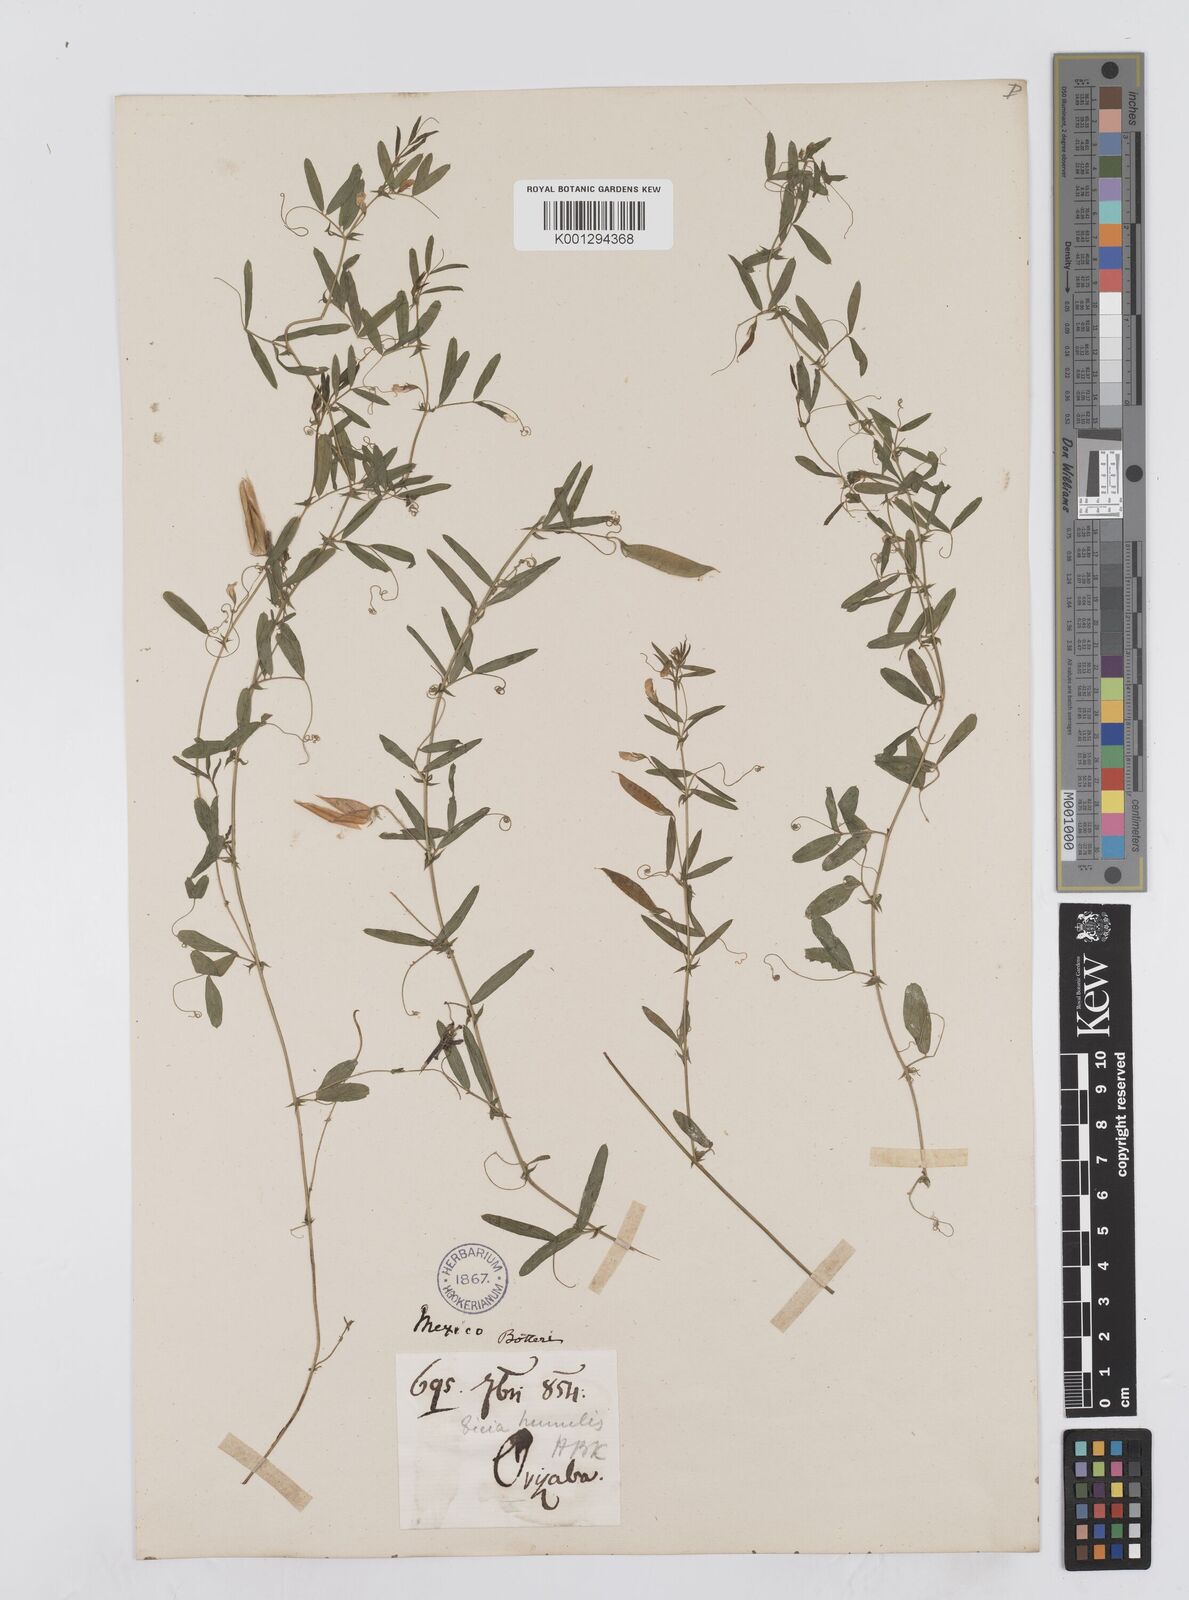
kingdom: Plantae
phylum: Tracheophyta
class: Magnoliopsida
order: Fabales
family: Fabaceae
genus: Vicia
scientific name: Vicia humilis
